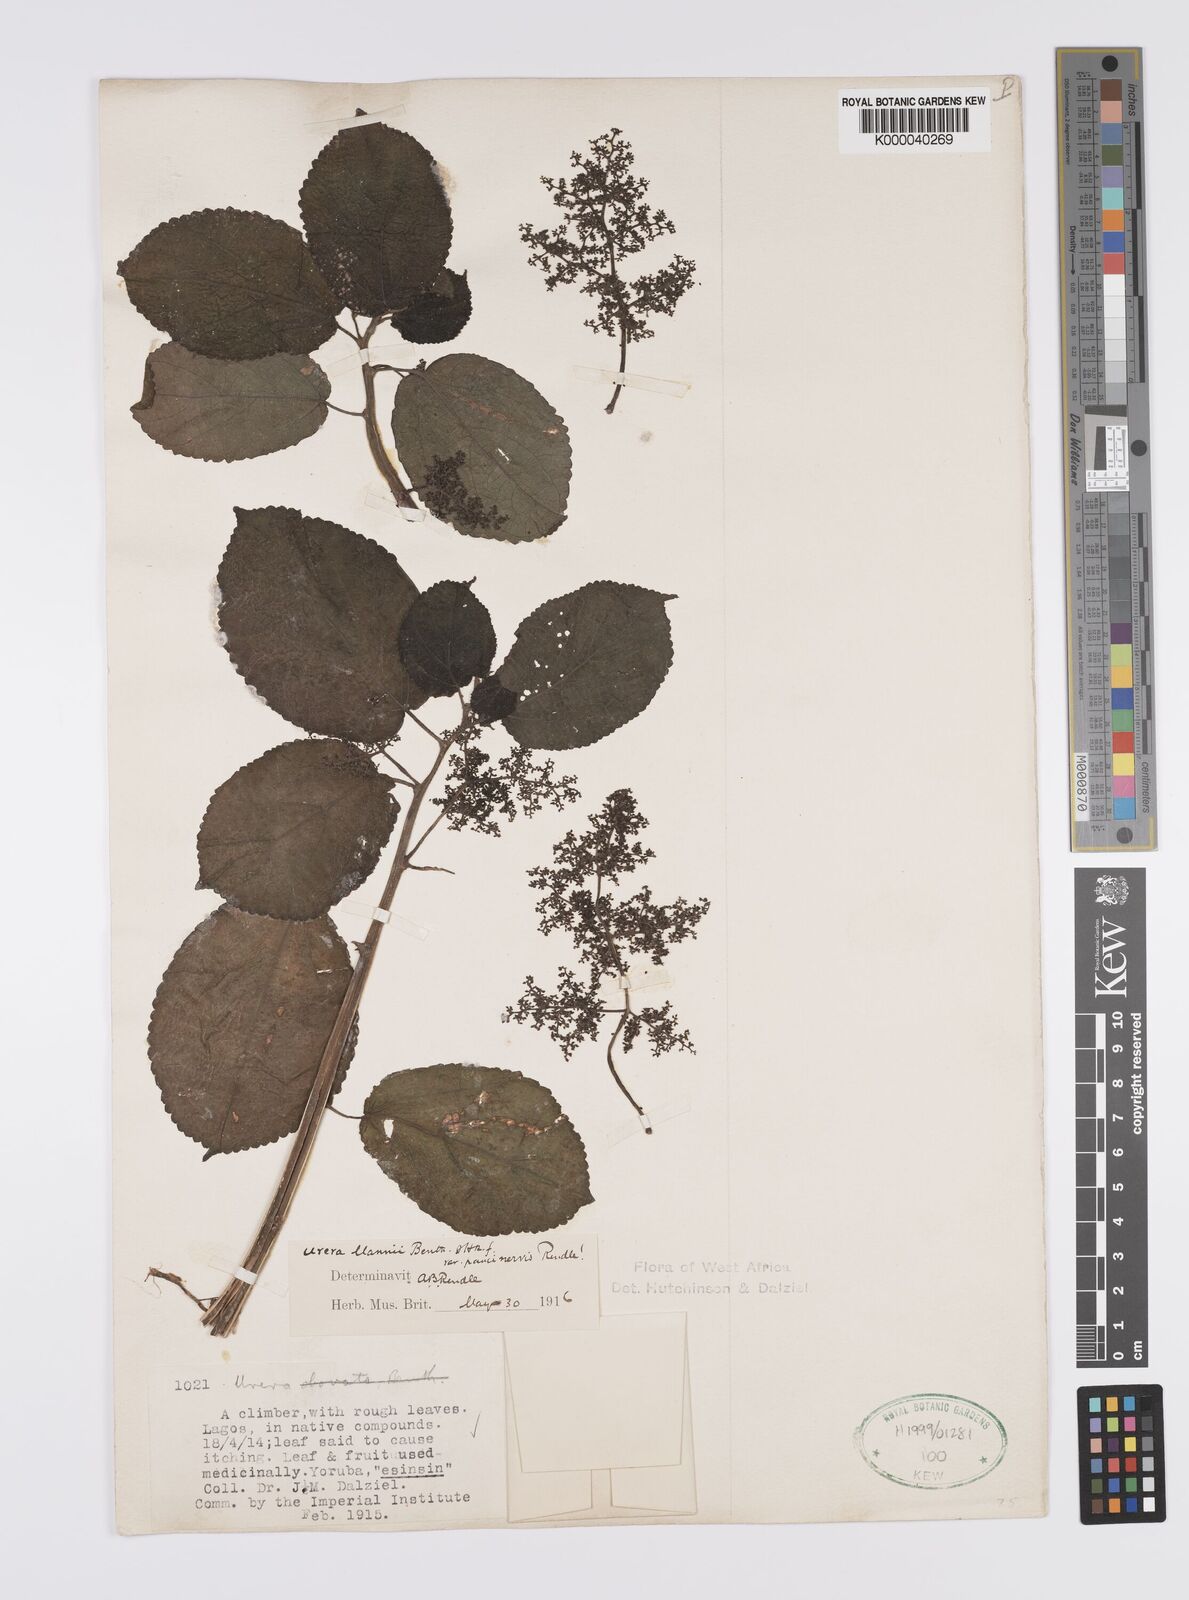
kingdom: Plantae
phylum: Tracheophyta
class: Magnoliopsida
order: Rosales
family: Urticaceae
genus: Scepocarpus
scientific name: Scepocarpus mannii
